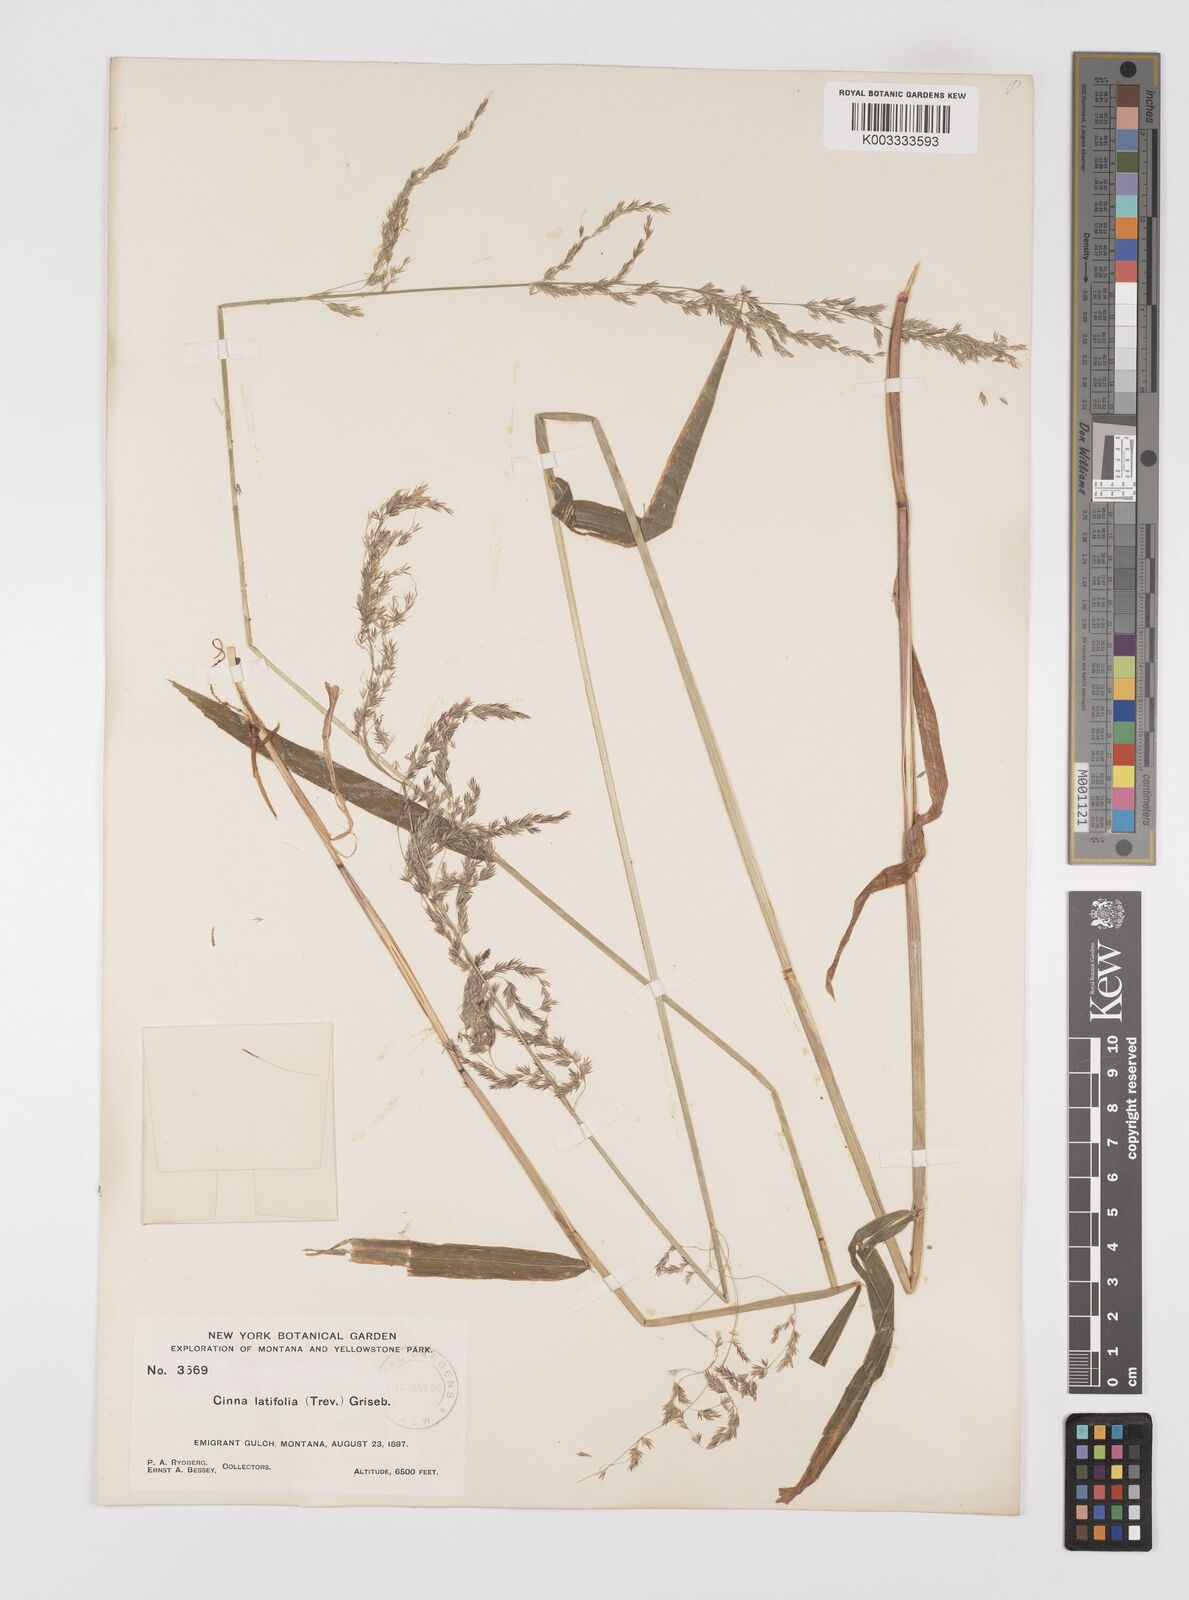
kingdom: Plantae
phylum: Tracheophyta
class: Liliopsida
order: Poales
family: Poaceae
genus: Cinna
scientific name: Cinna latifolia
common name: Drooping woodreed
